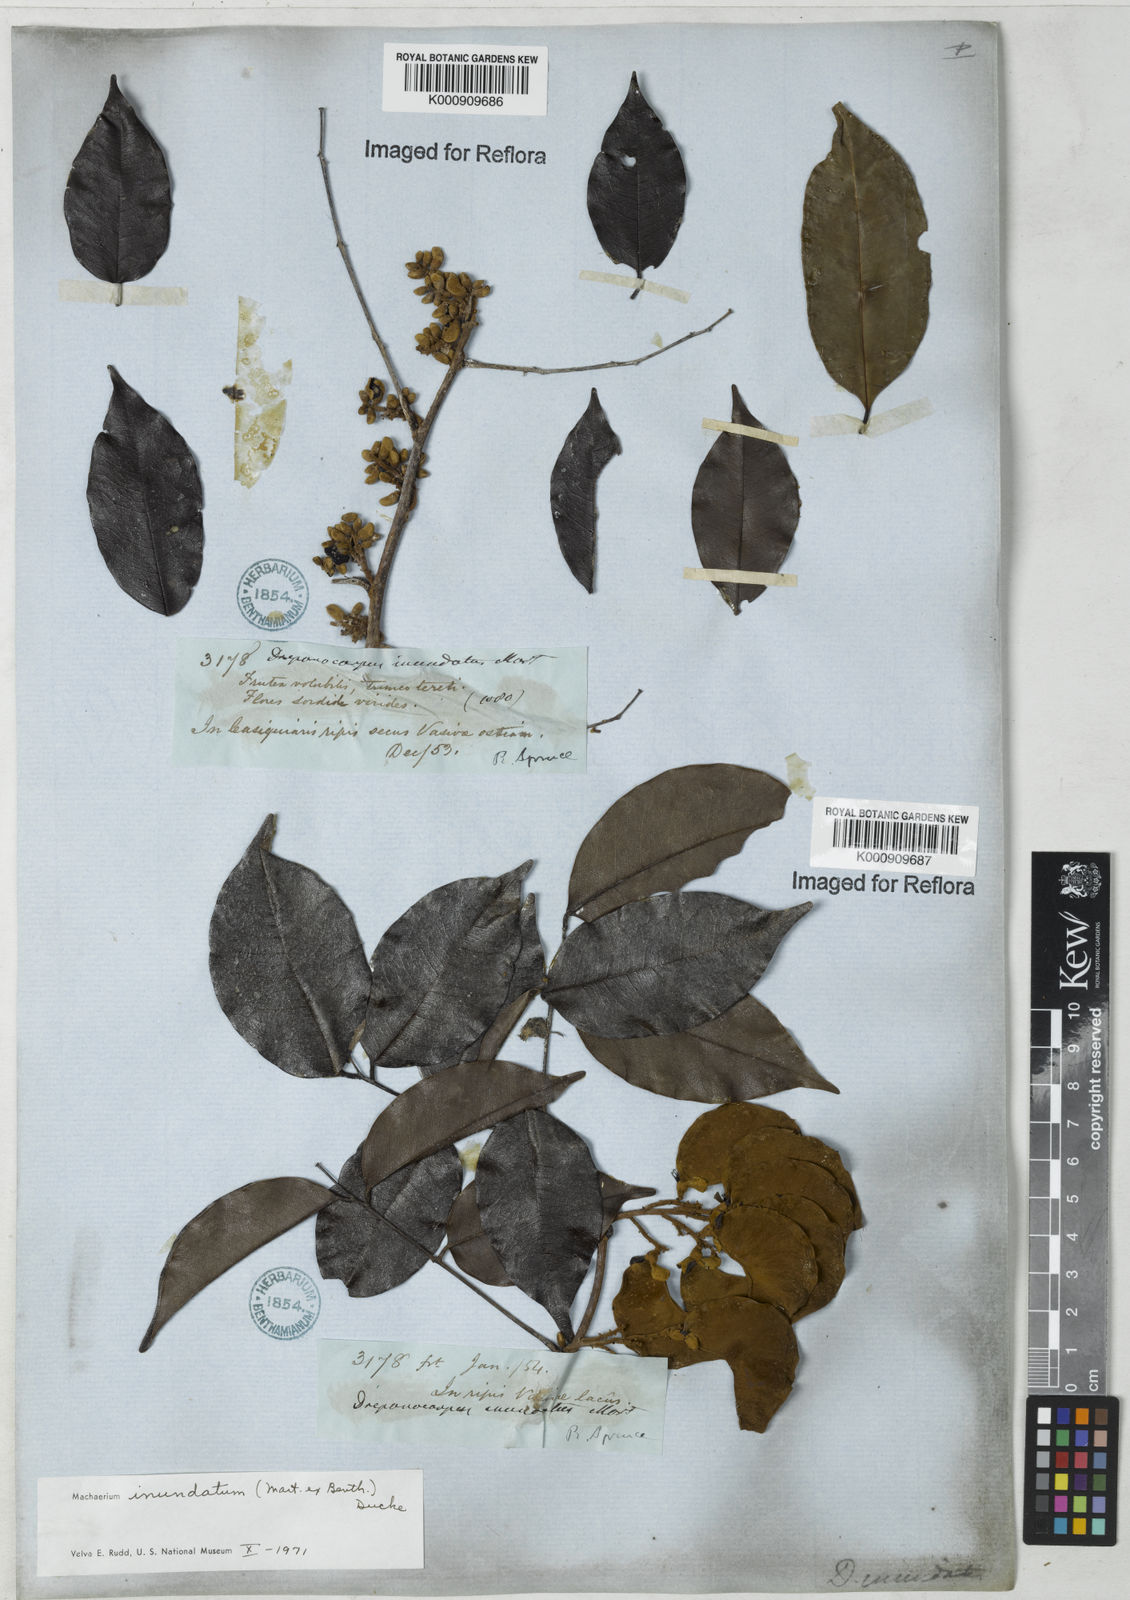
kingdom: Plantae
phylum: Tracheophyta
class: Magnoliopsida
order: Fabales
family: Fabaceae
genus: Machaerium
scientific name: Machaerium inundatum
